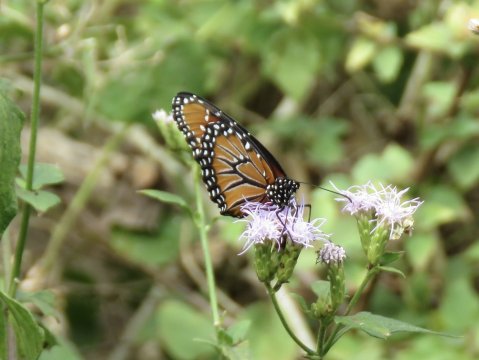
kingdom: Animalia
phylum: Arthropoda
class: Insecta
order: Lepidoptera
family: Nymphalidae
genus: Danaus
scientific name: Danaus gilippus
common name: Queen
